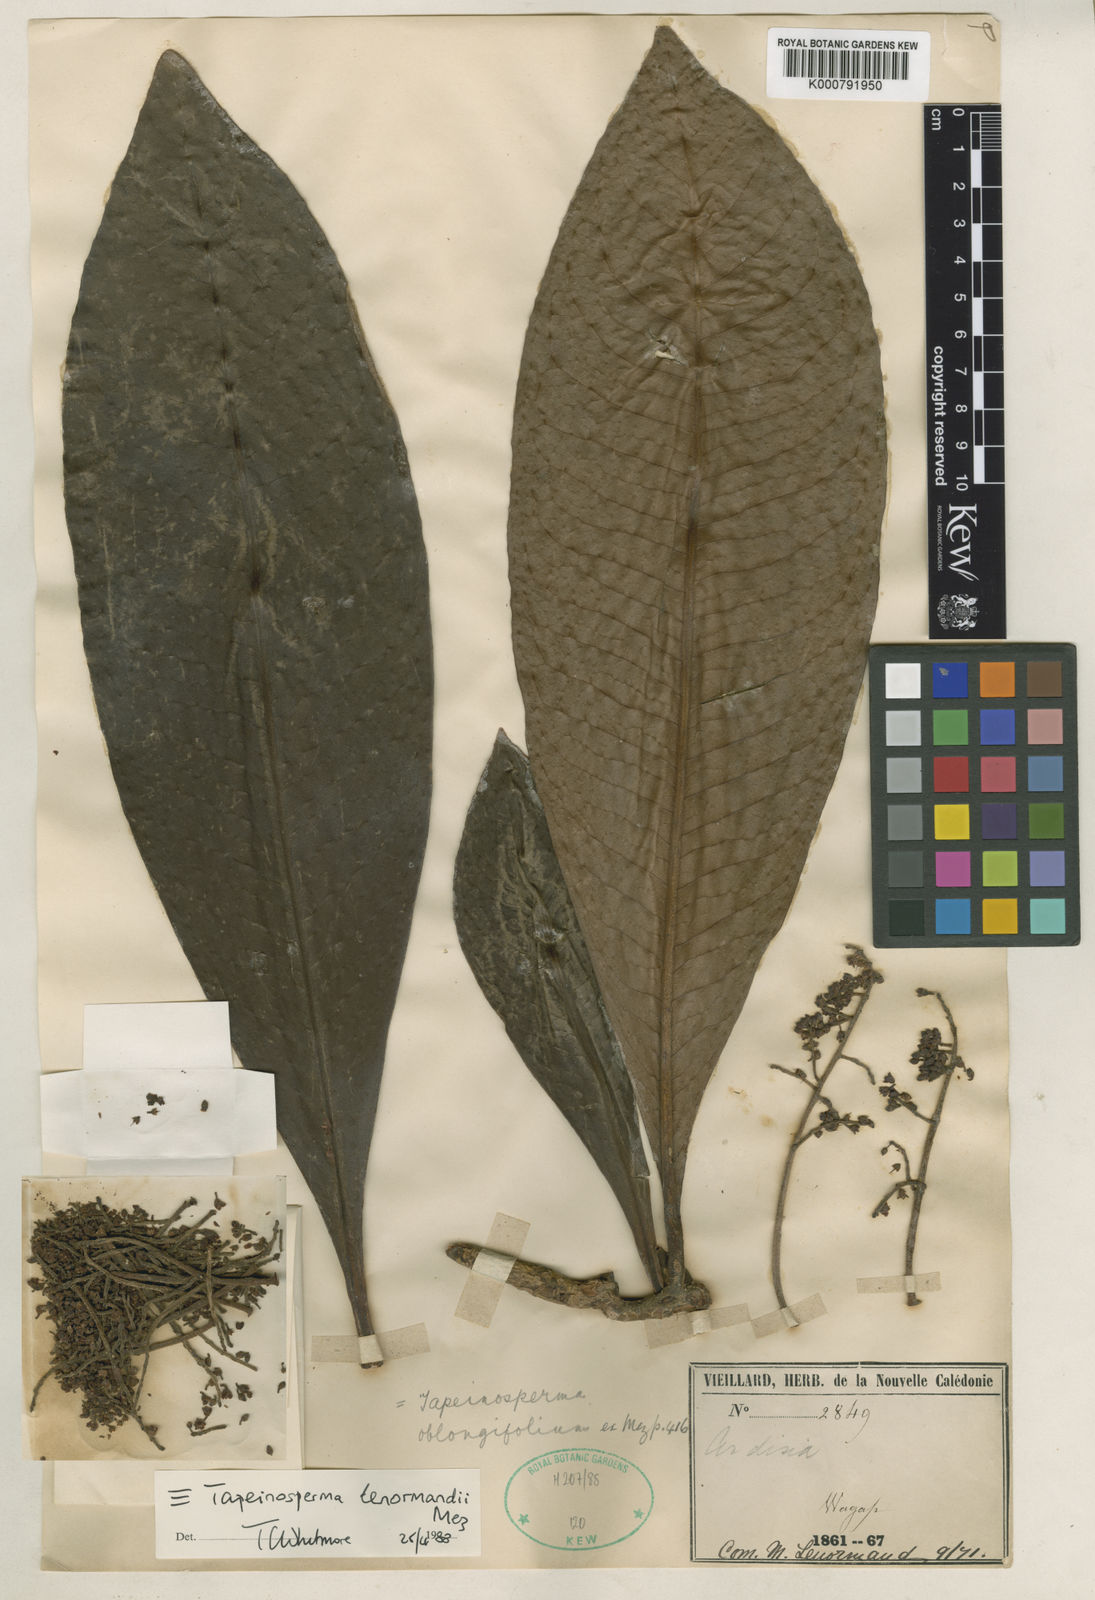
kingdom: Plantae
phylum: Tracheophyta
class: Magnoliopsida
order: Ericales
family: Primulaceae
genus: Tapeinosperma
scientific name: Tapeinosperma lenormandii
